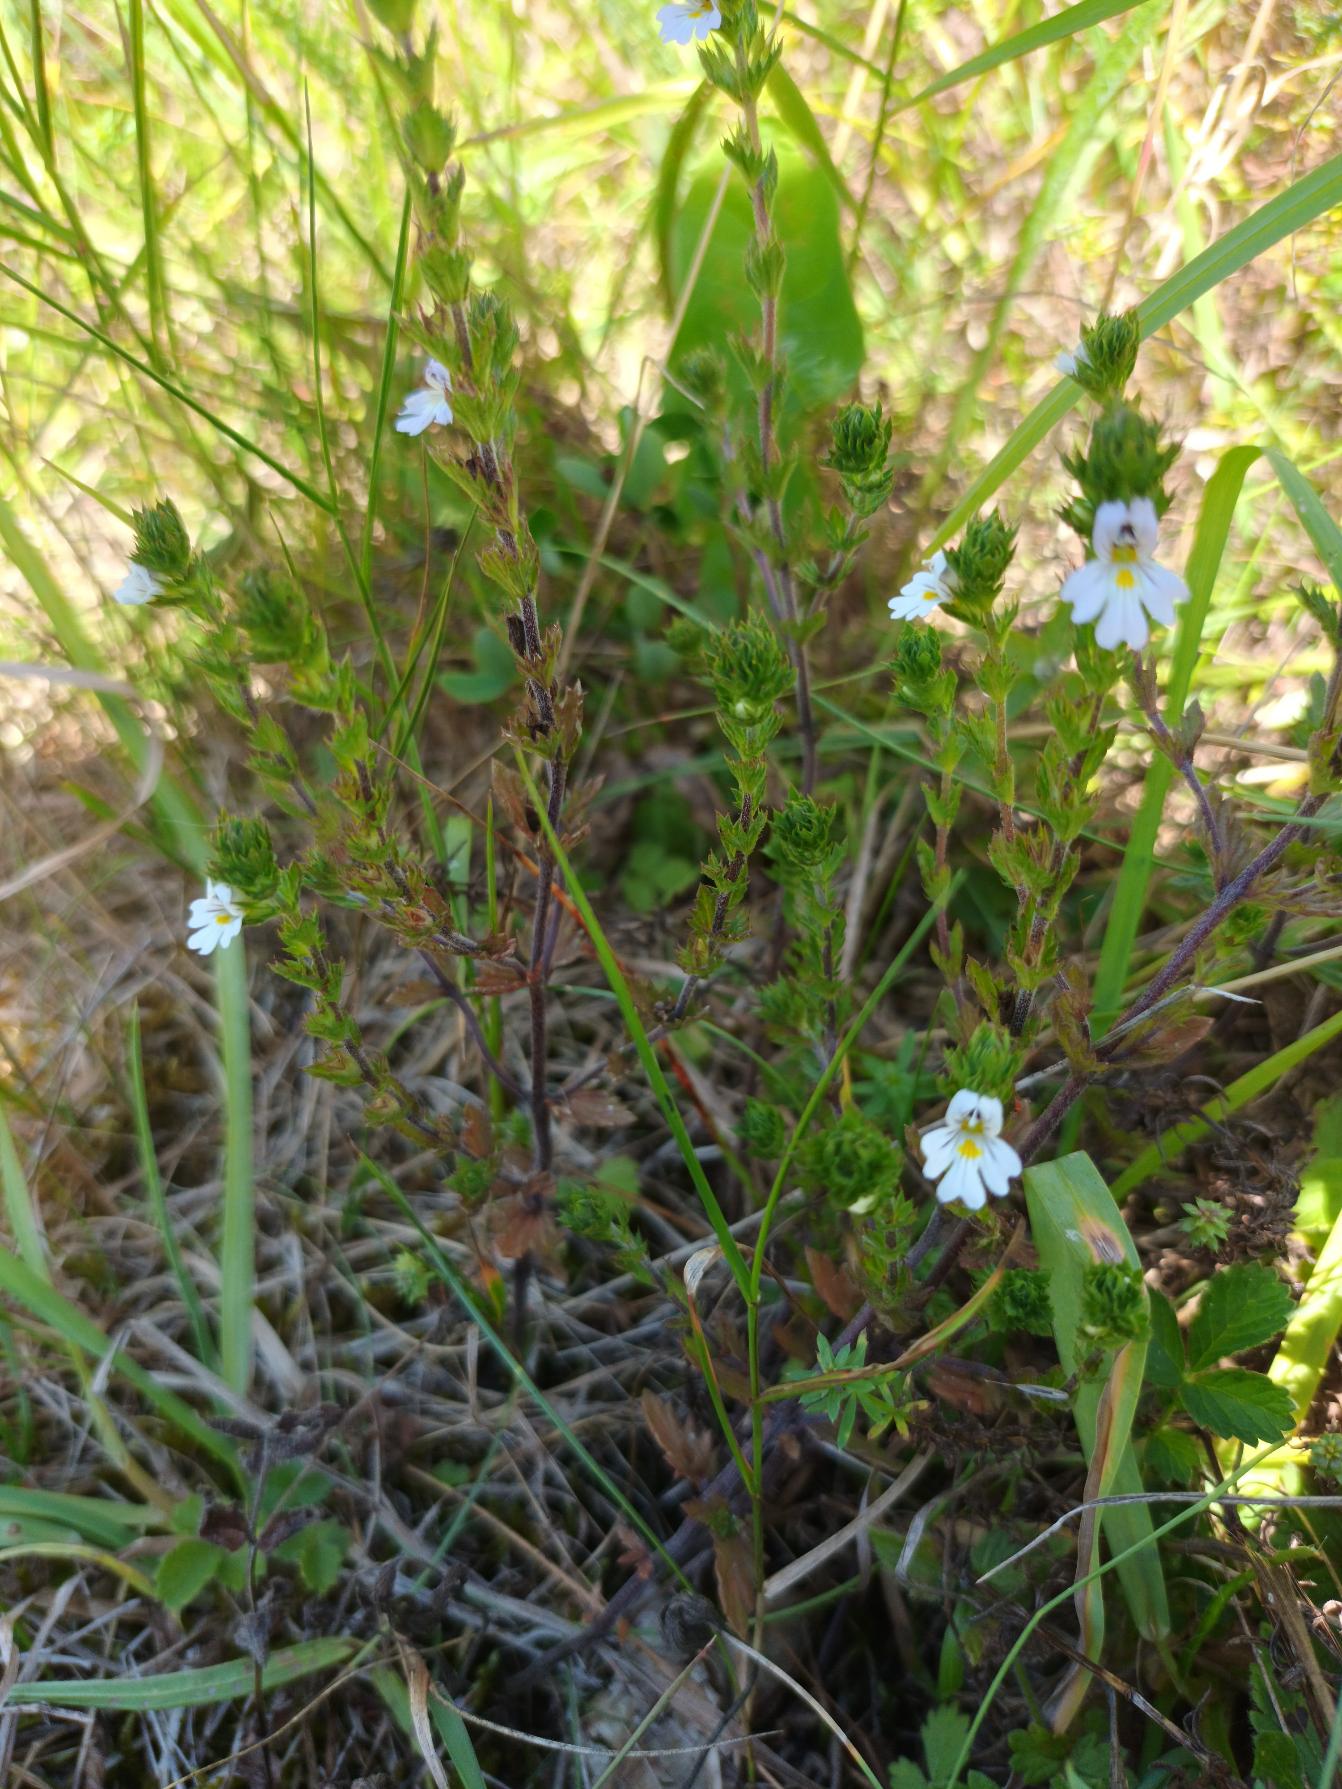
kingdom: Plantae
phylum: Tracheophyta
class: Magnoliopsida
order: Lamiales
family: Orobanchaceae
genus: Euphrasia
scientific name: Euphrasia stricta
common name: Spids øjentrøst
